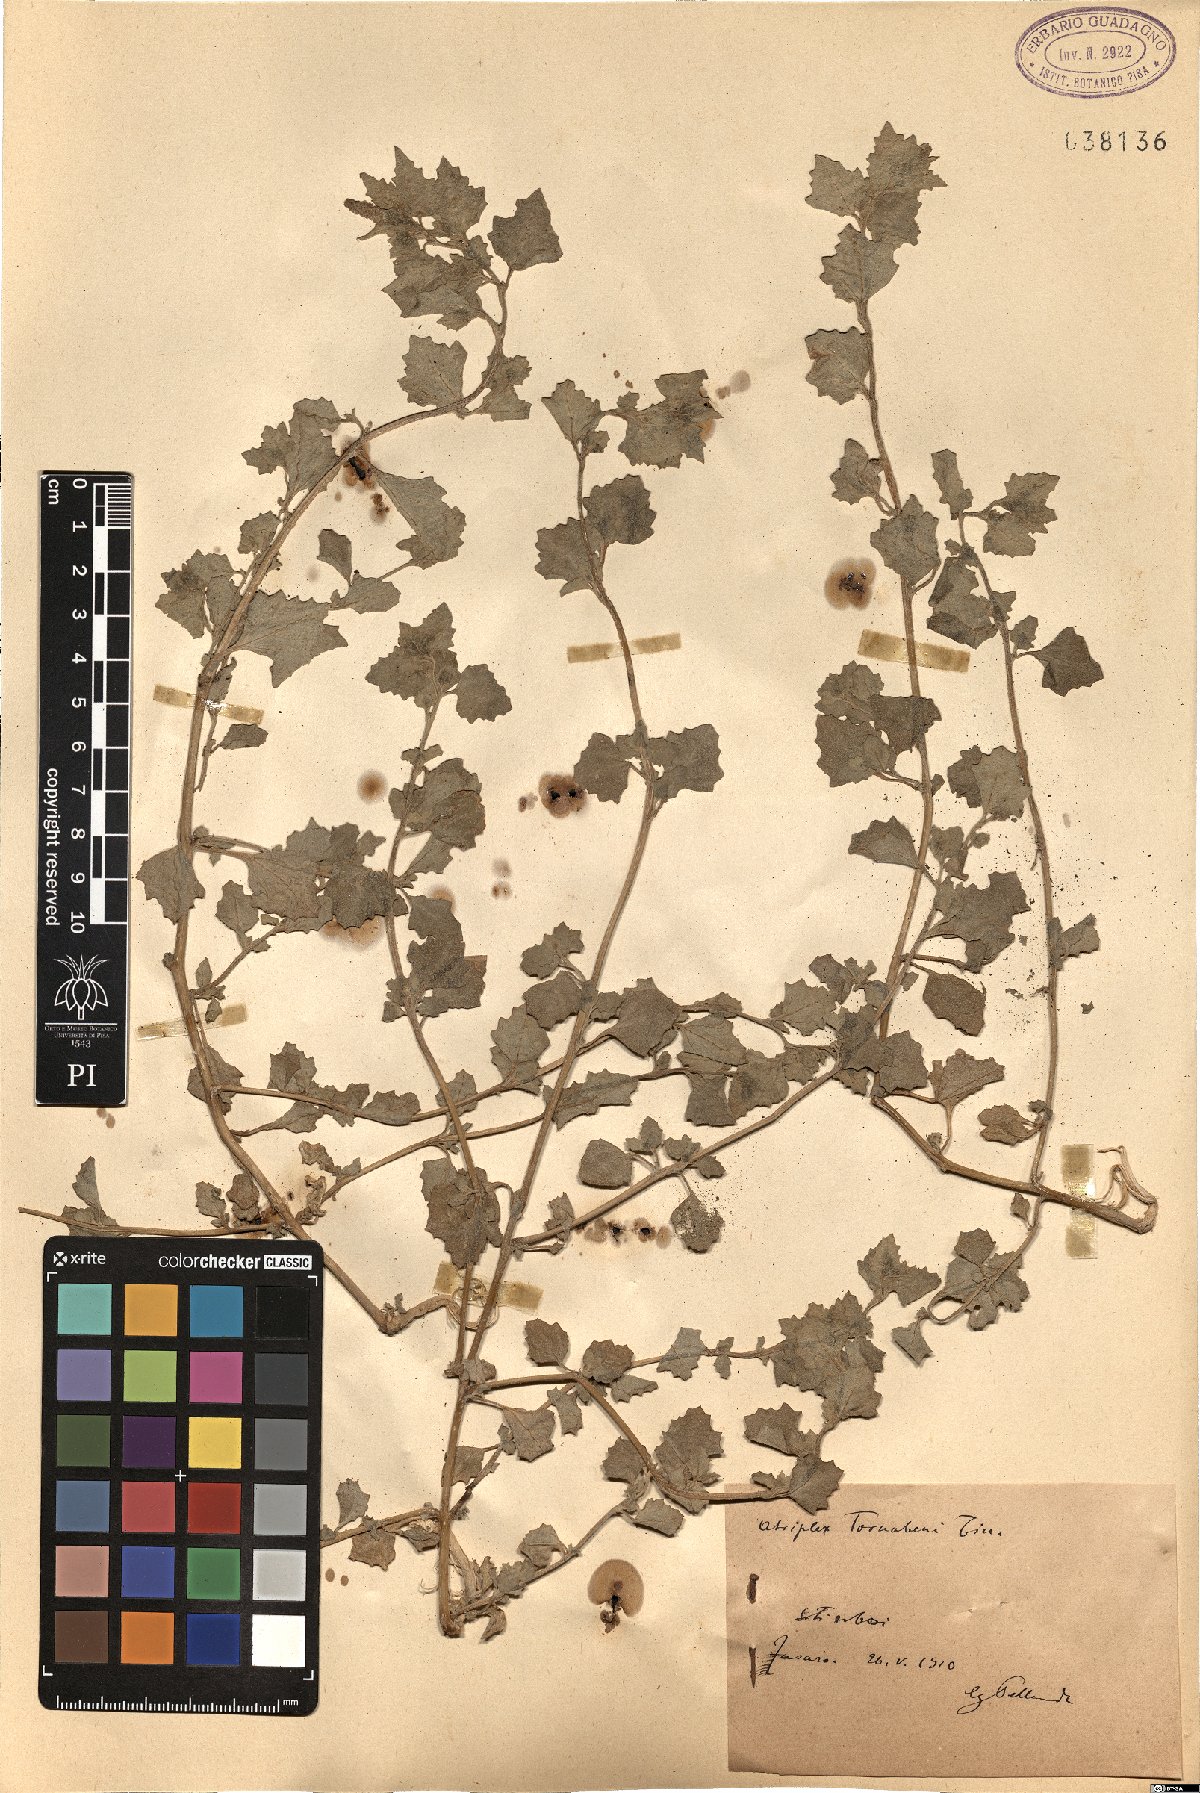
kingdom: Plantae
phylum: Tracheophyta
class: Magnoliopsida
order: Caryophyllales
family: Amaranthaceae
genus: Atriplex
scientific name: Atriplex tornabenei
